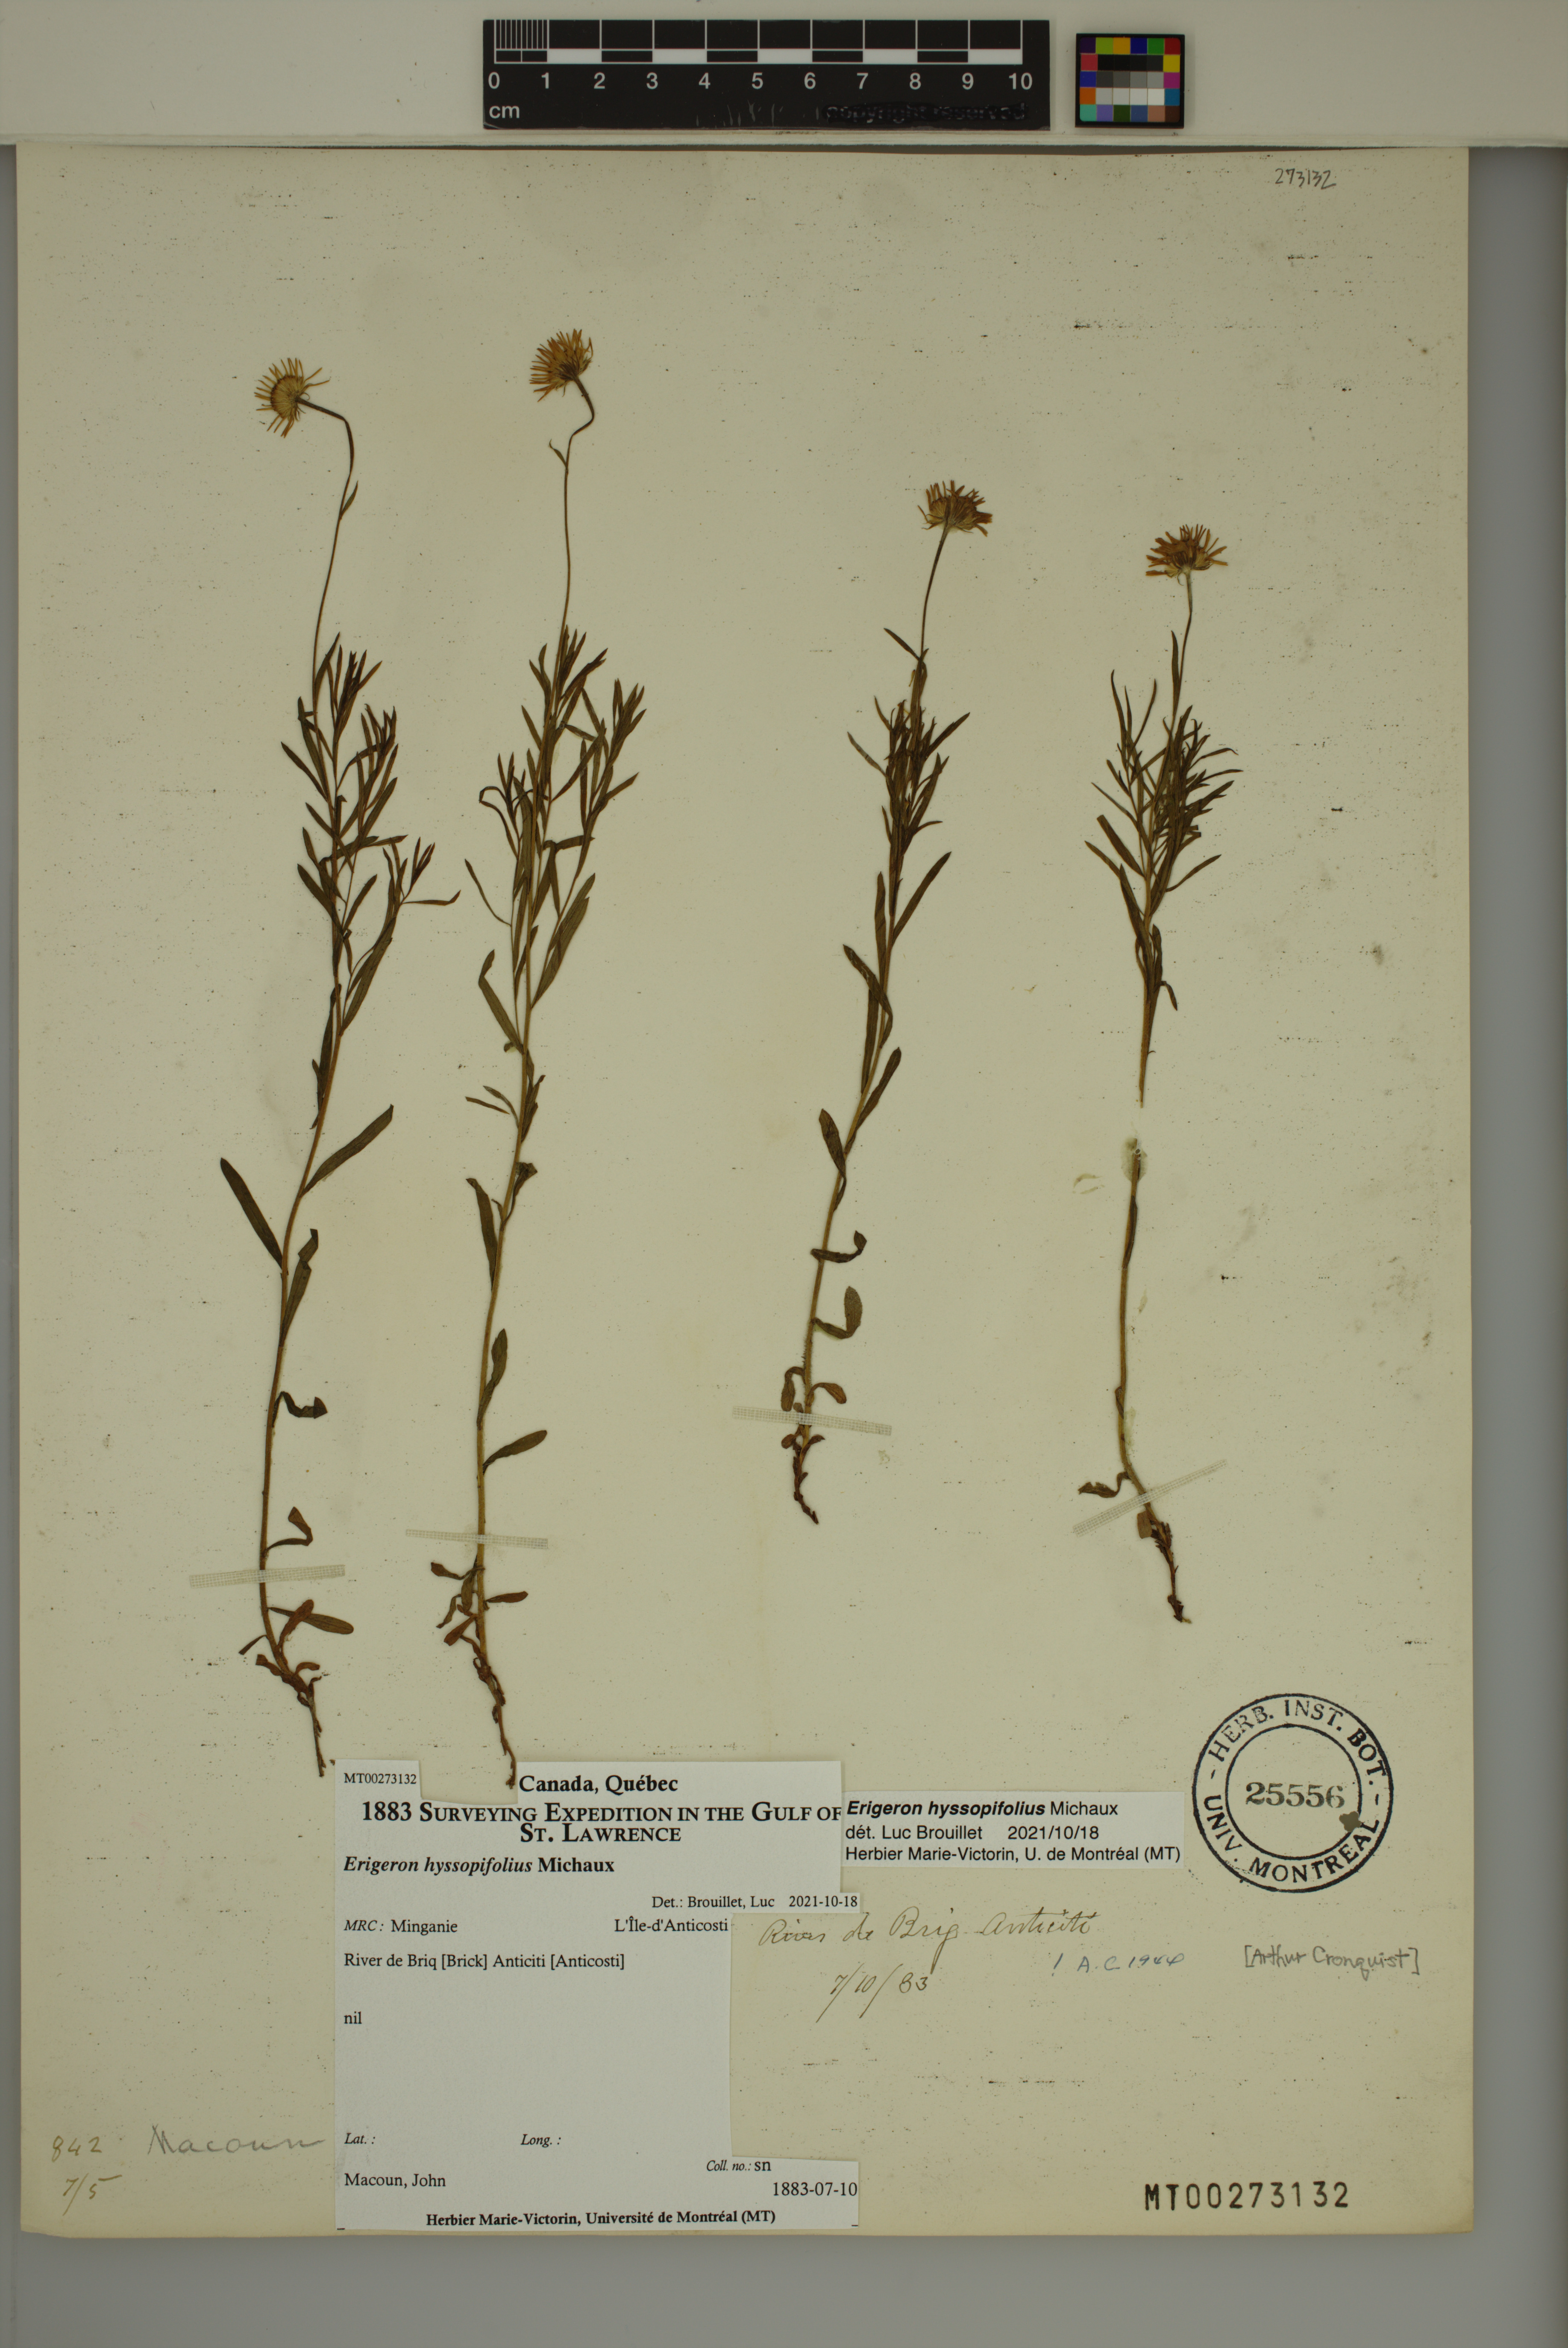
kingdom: Plantae
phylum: Tracheophyta
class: Magnoliopsida
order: Asterales
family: Asteraceae
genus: Erigeron
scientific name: Erigeron hyssopifolius
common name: Daisy fleabane
